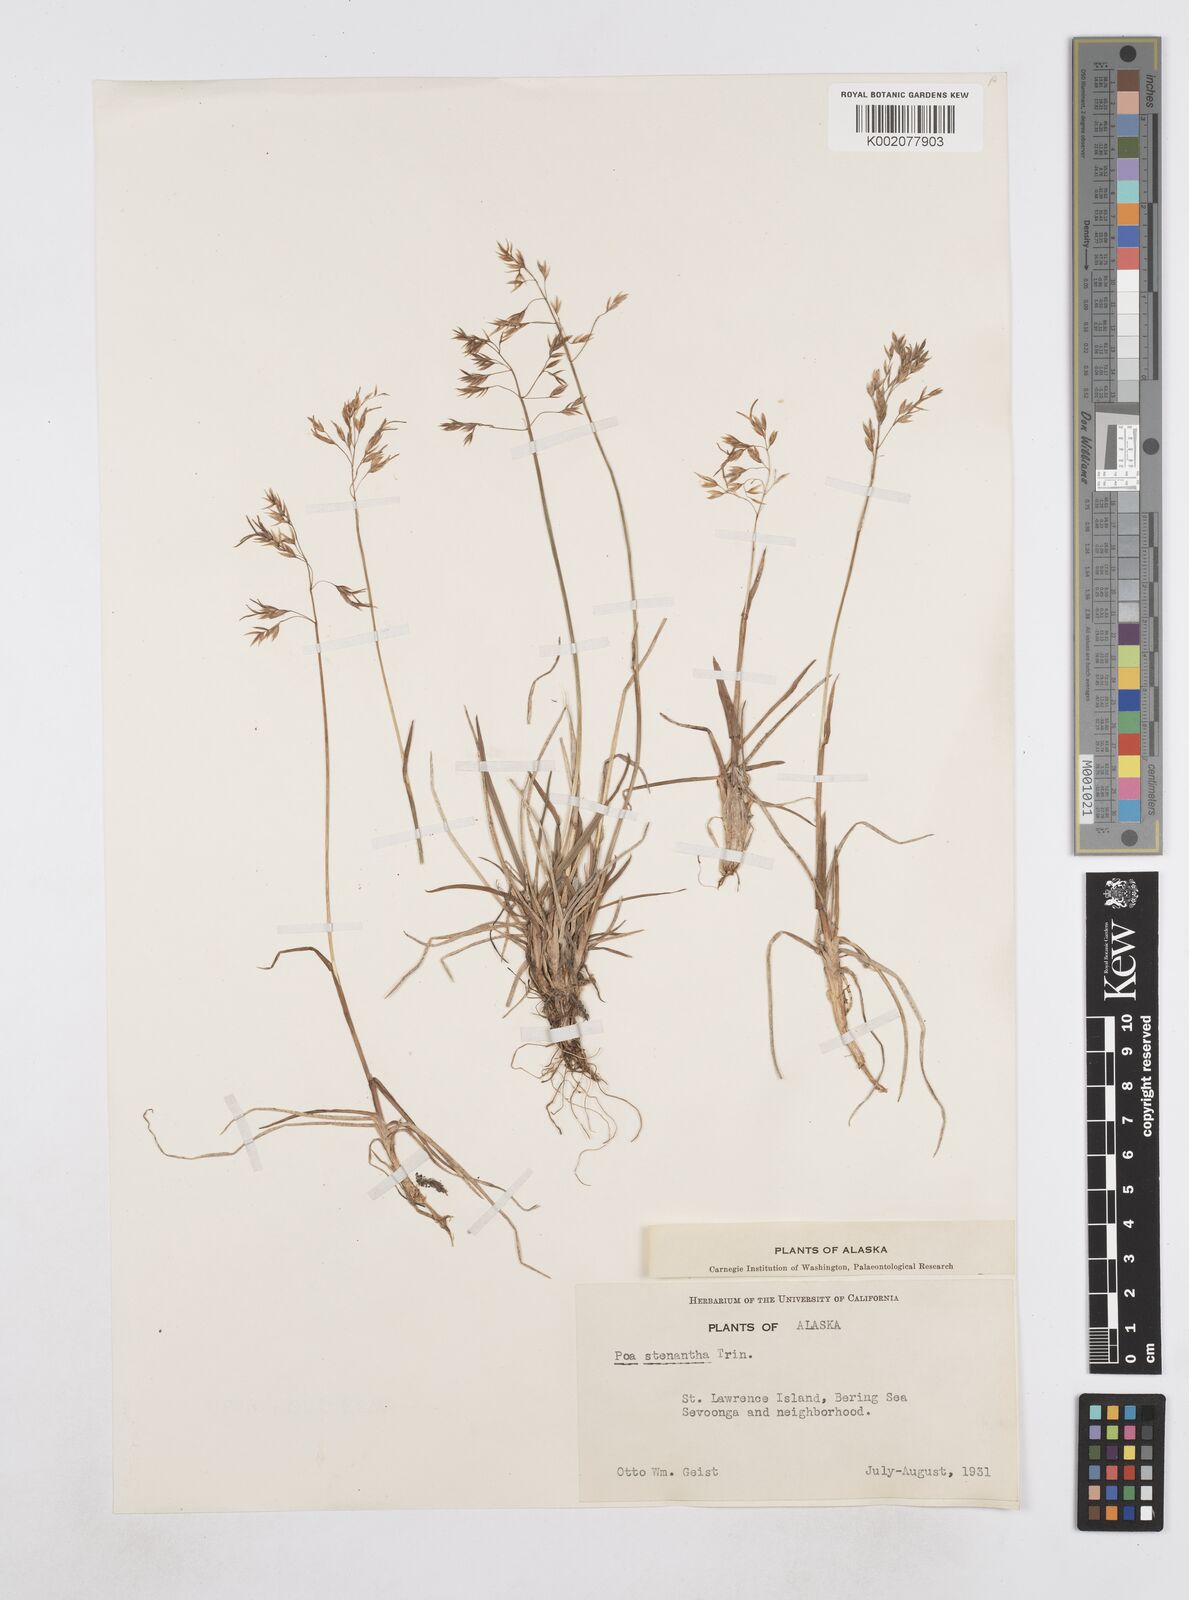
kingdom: Plantae
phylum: Tracheophyta
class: Liliopsida
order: Poales
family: Poaceae
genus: Poa
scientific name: Poa stenantha
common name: Narrow-flowered bluegrass
